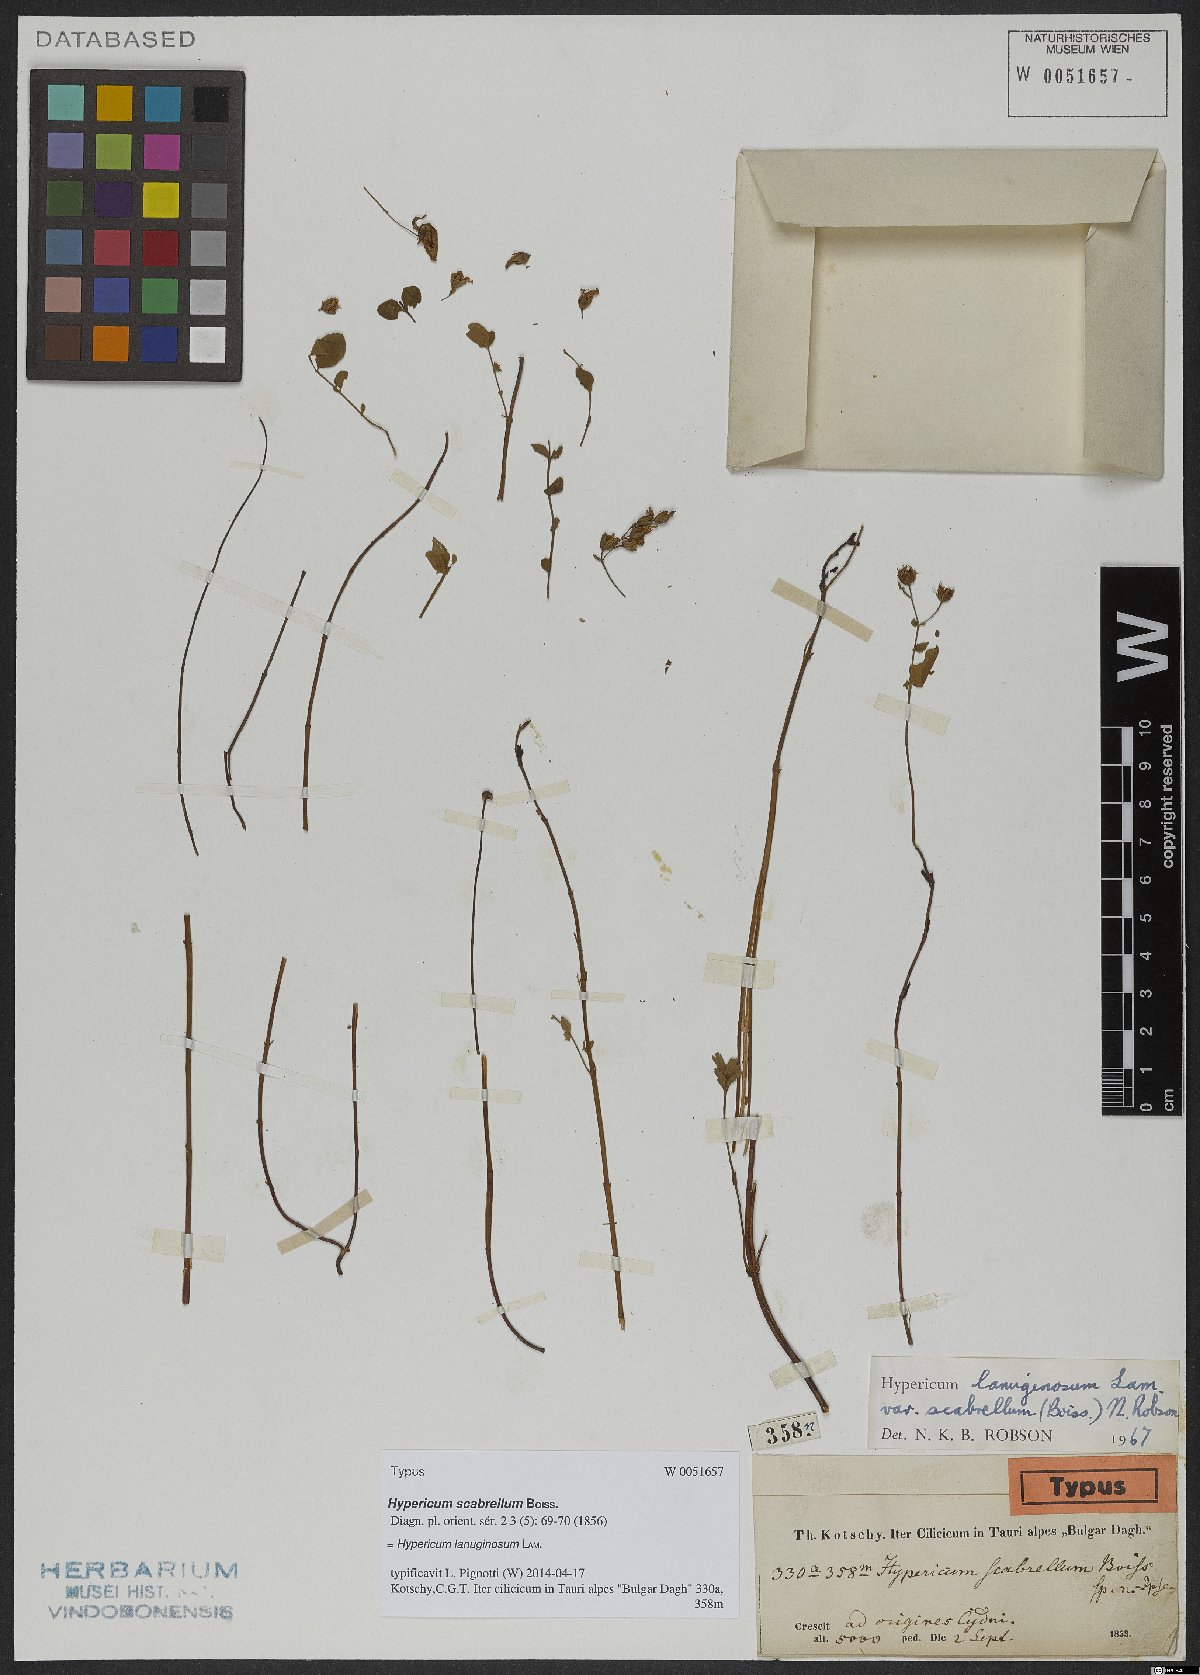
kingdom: Plantae
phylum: Tracheophyta
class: Magnoliopsida
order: Malpighiales
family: Hypericaceae
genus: Hypericum
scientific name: Hypericum lanuginosum
